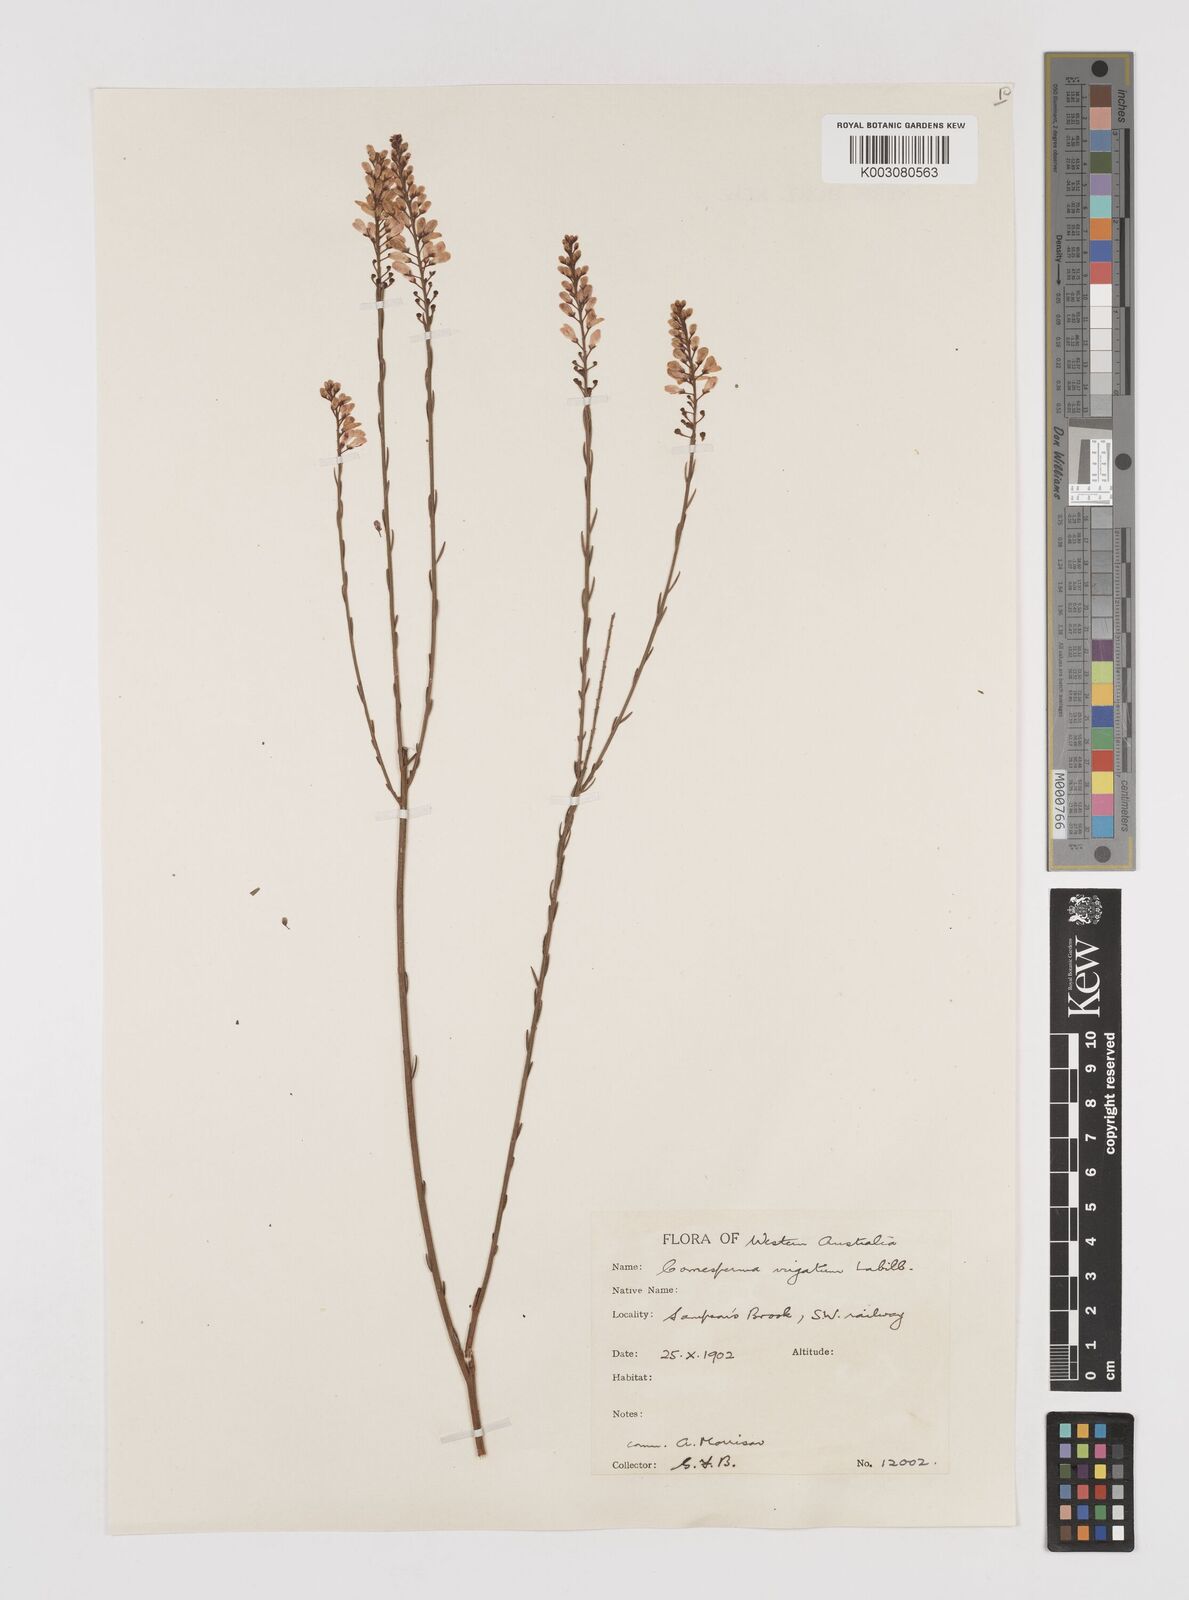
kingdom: Plantae
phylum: Tracheophyta
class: Magnoliopsida
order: Fabales
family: Polygalaceae
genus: Comesperma
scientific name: Comesperma virgatum
